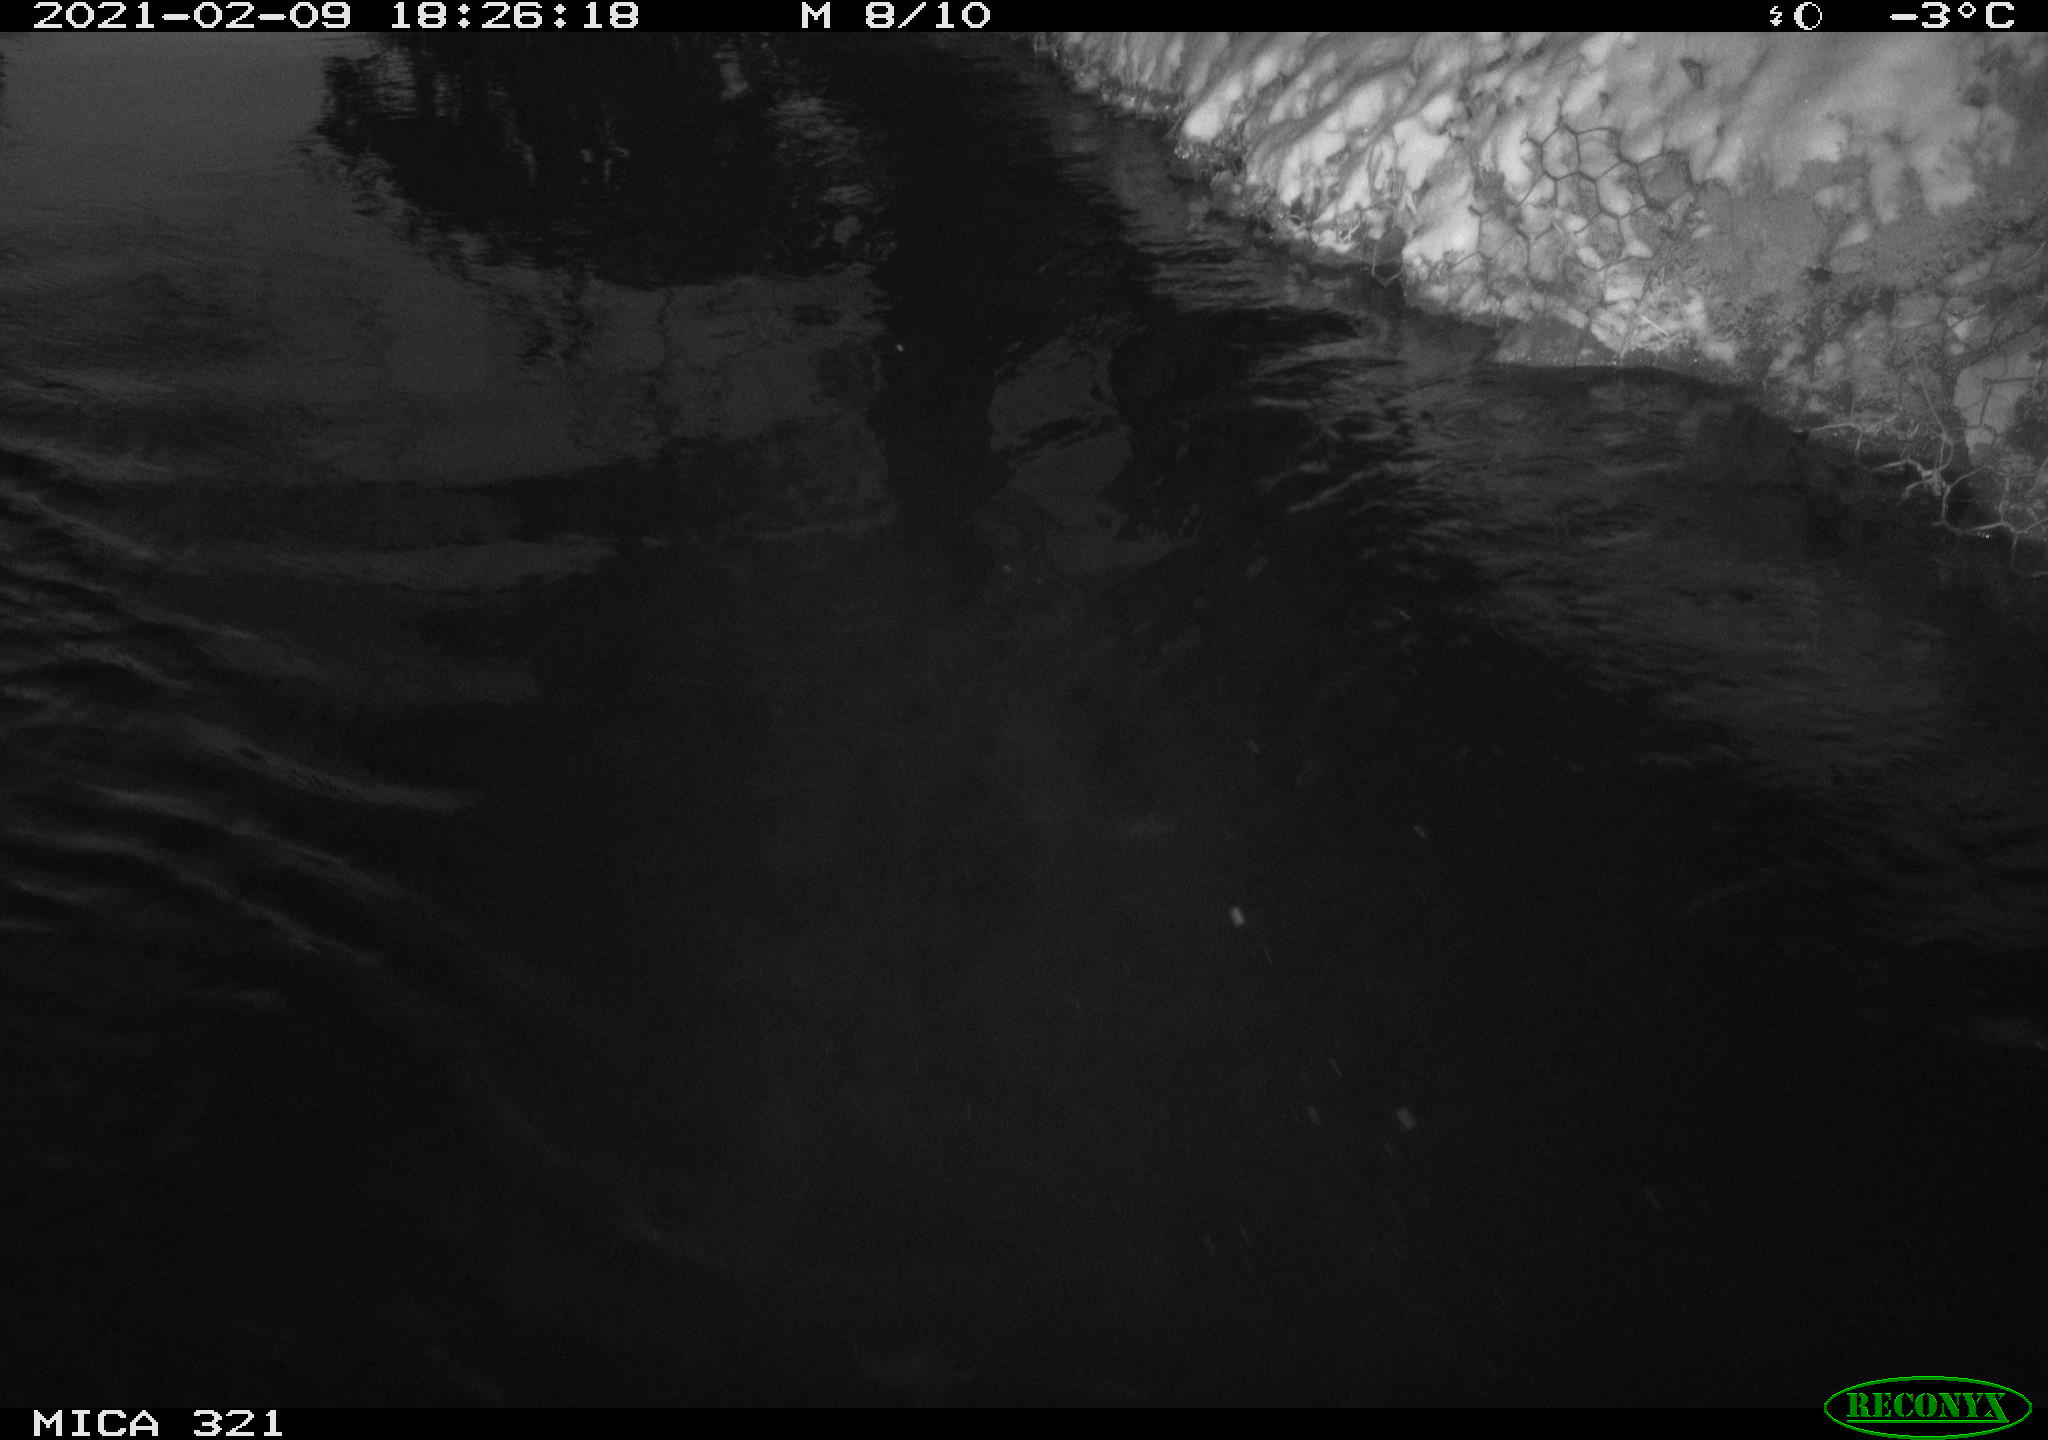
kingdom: Animalia
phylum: Chordata
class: Aves
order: Anseriformes
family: Anatidae
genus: Anas
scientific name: Anas platyrhynchos
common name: Mallard
